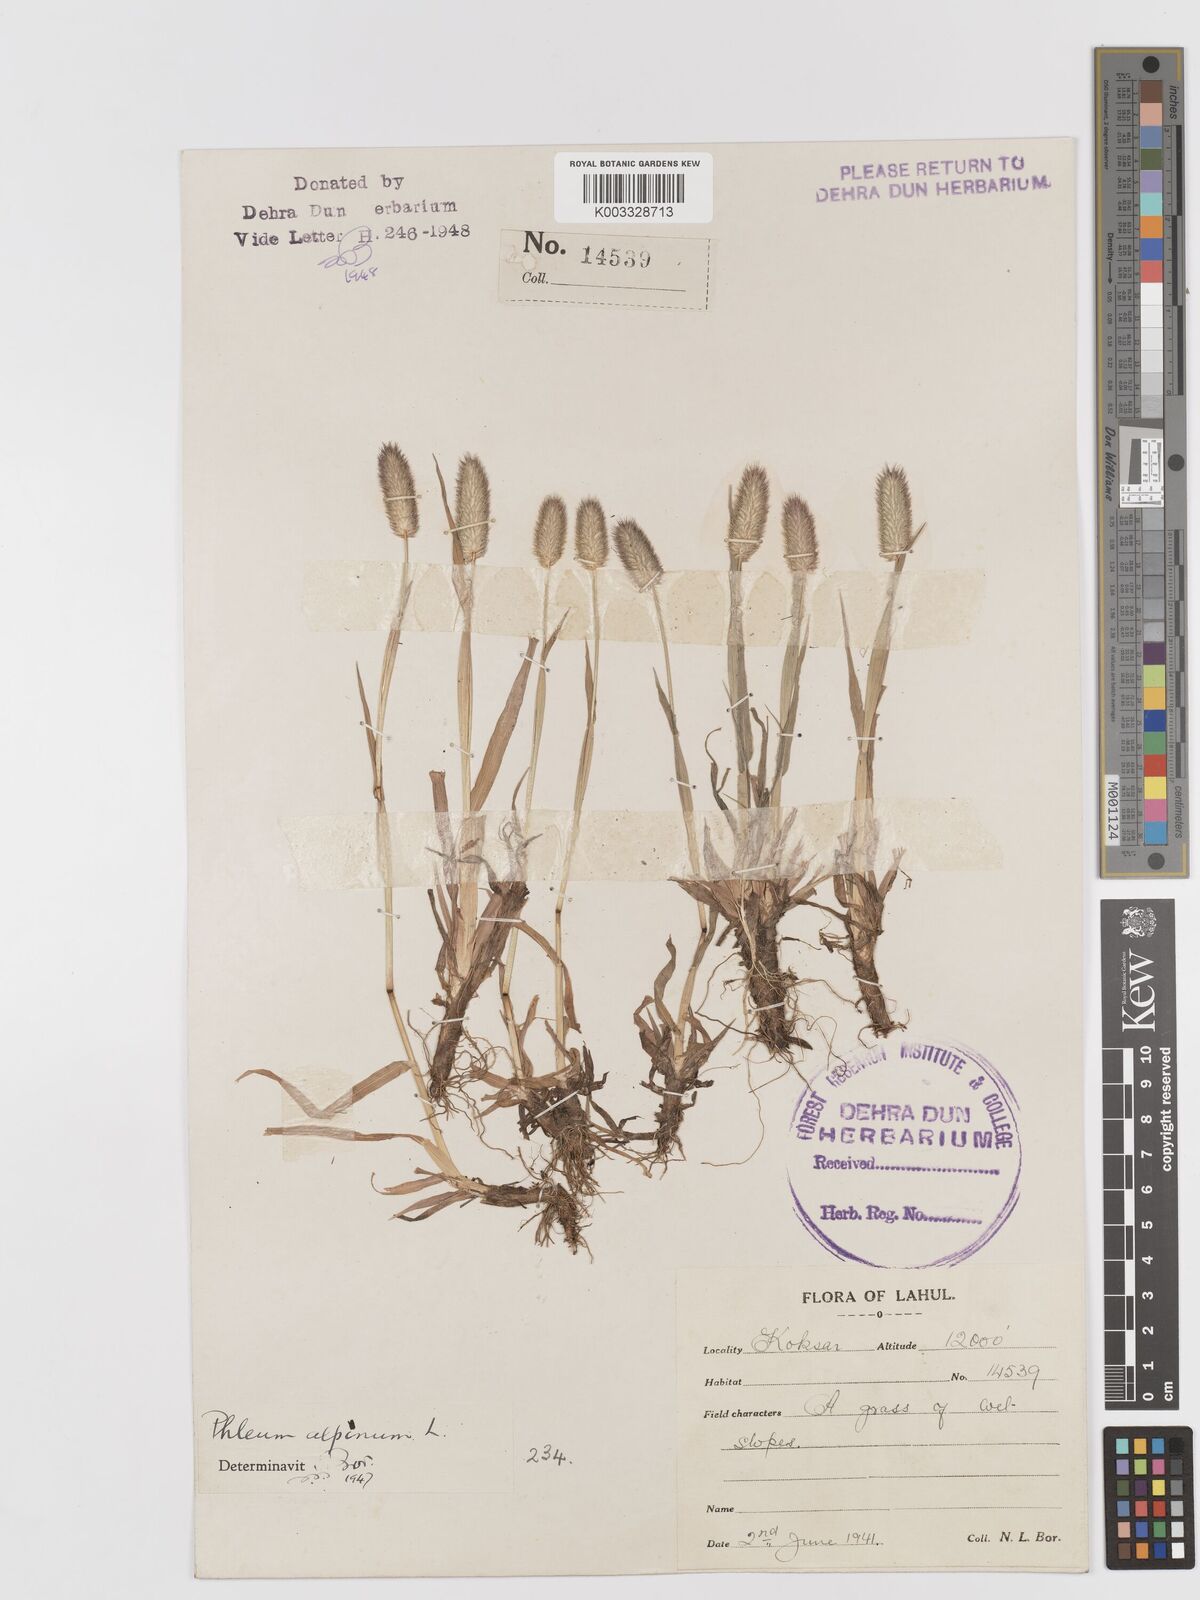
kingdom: Plantae
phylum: Tracheophyta
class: Liliopsida
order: Poales
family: Poaceae
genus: Phleum
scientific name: Phleum alpinum
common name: Alpine cat's-tail
